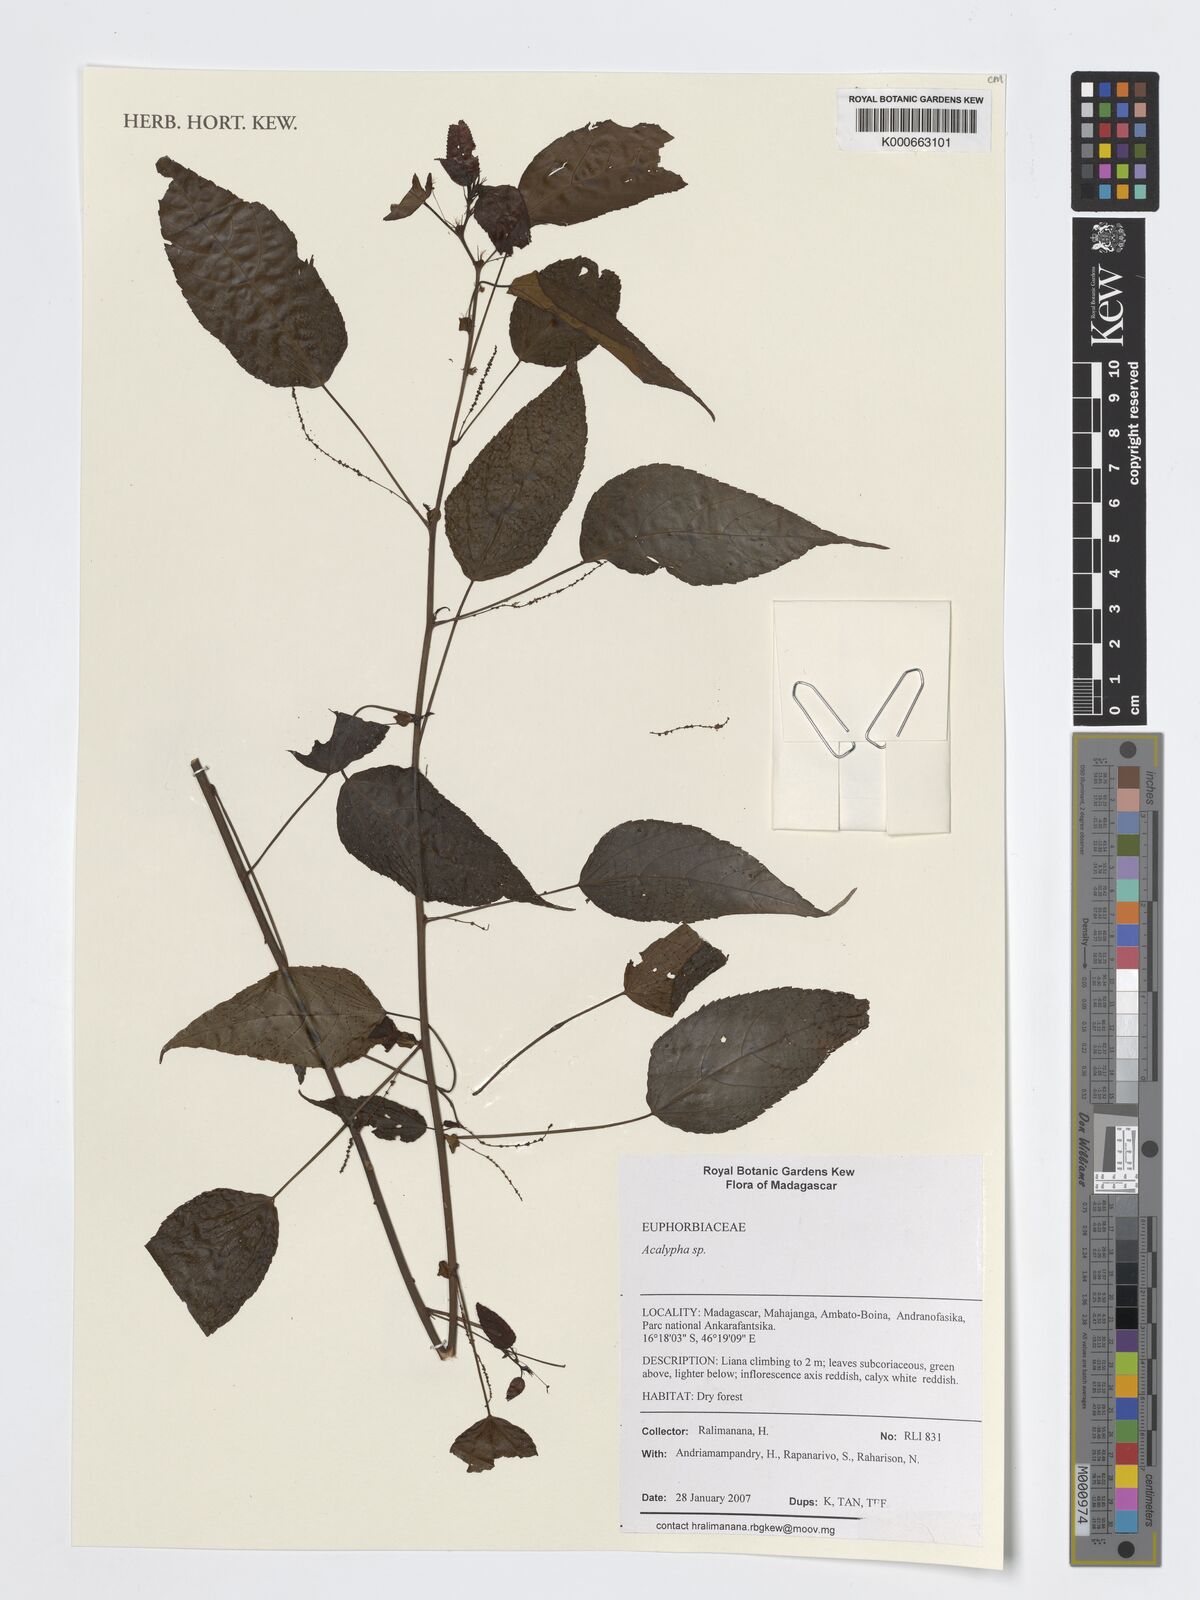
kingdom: Plantae
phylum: Tracheophyta
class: Magnoliopsida
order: Malpighiales
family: Euphorbiaceae
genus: Acalypha
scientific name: Acalypha
